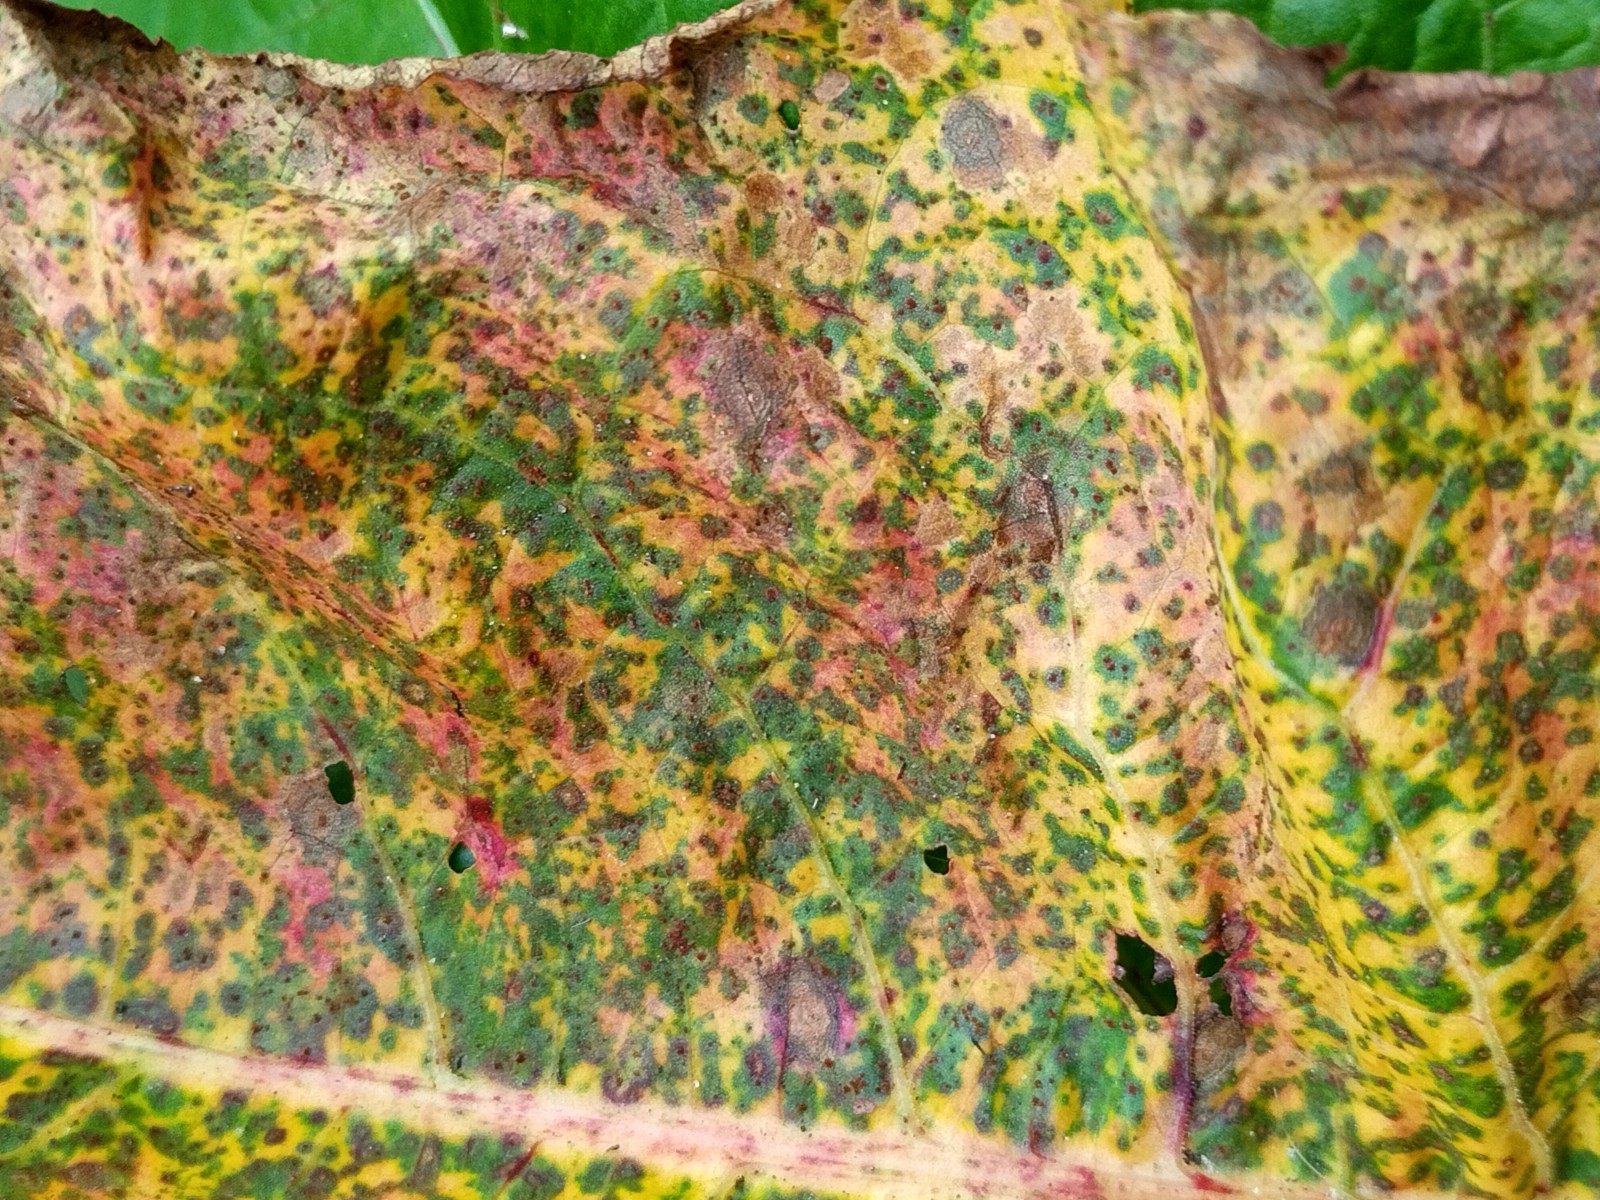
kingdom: Fungi
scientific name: Fungi
